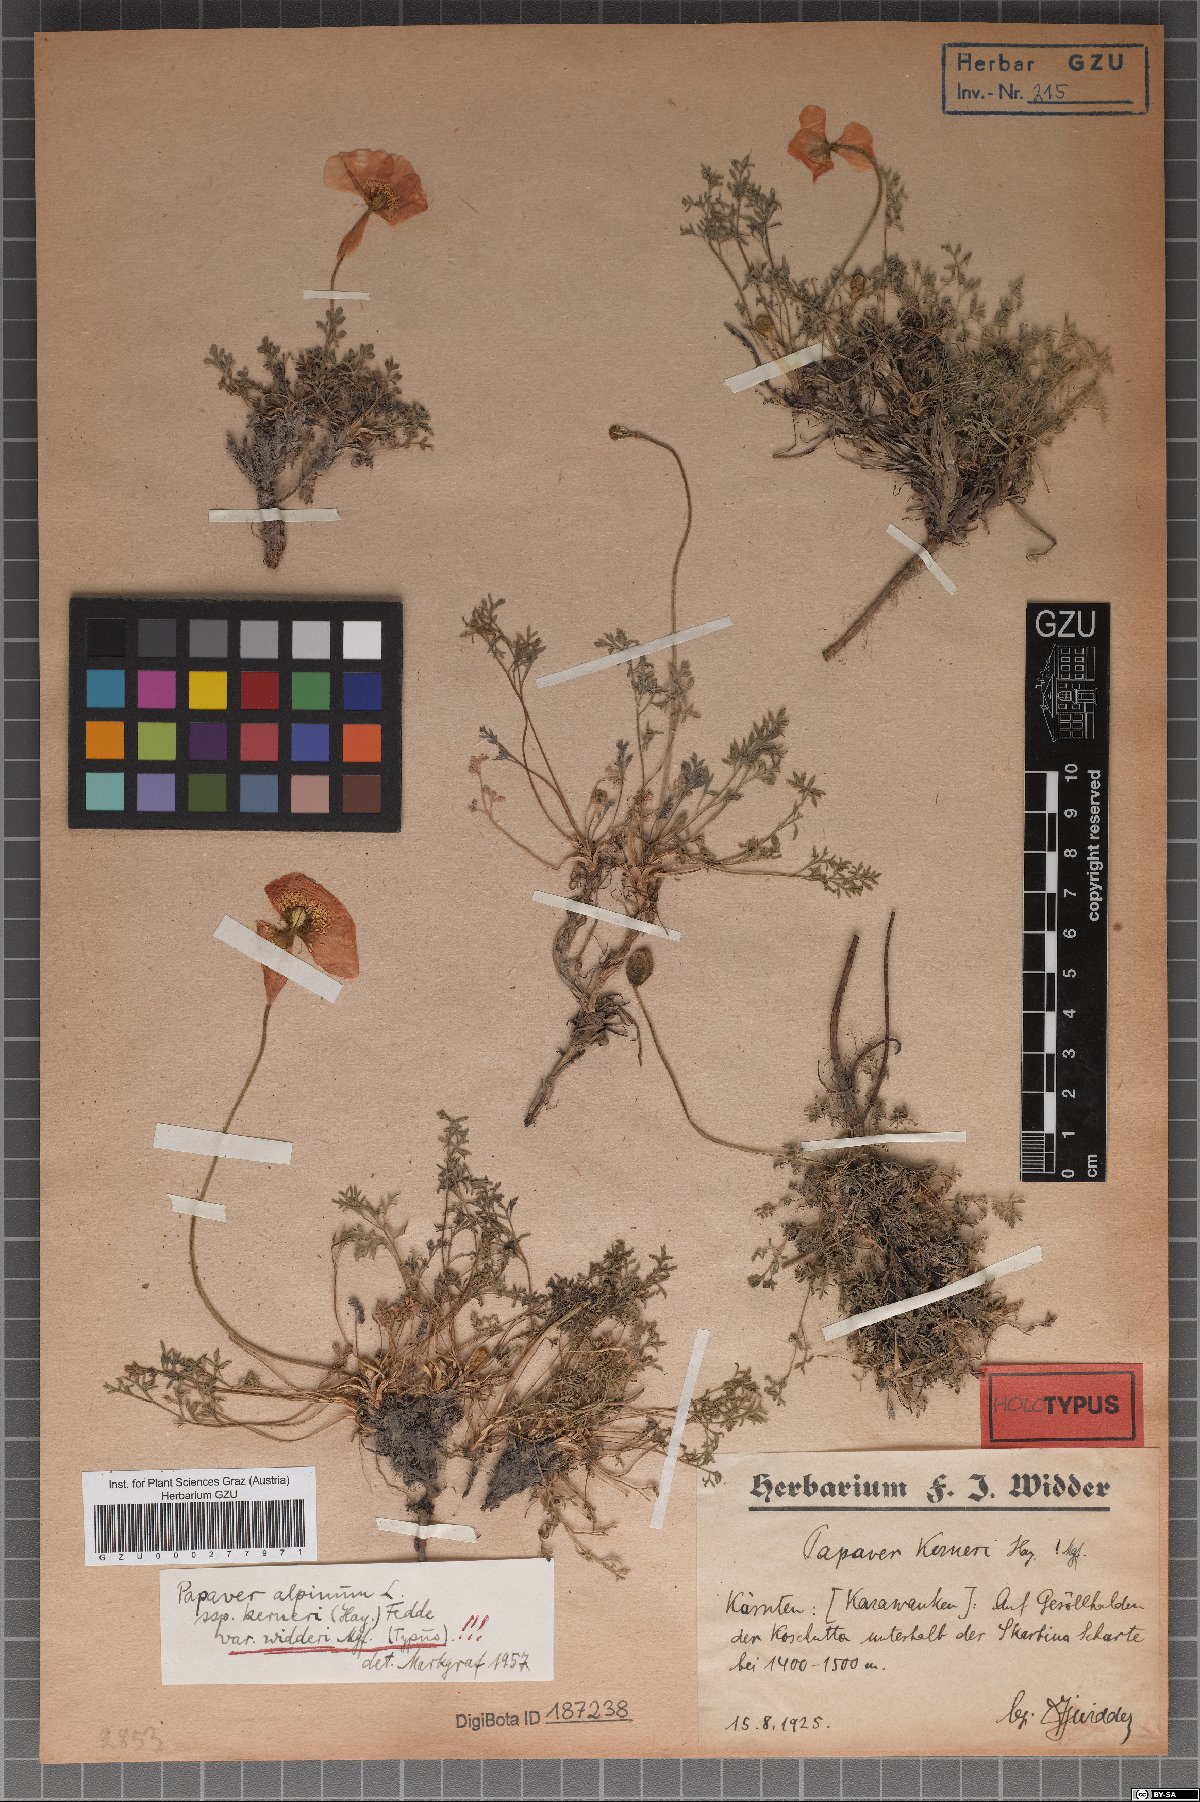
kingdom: Plantae
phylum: Tracheophyta
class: Magnoliopsida
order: Ranunculales
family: Papaveraceae
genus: Papaver
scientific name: Papaver alpinum
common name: Austrian poppy
